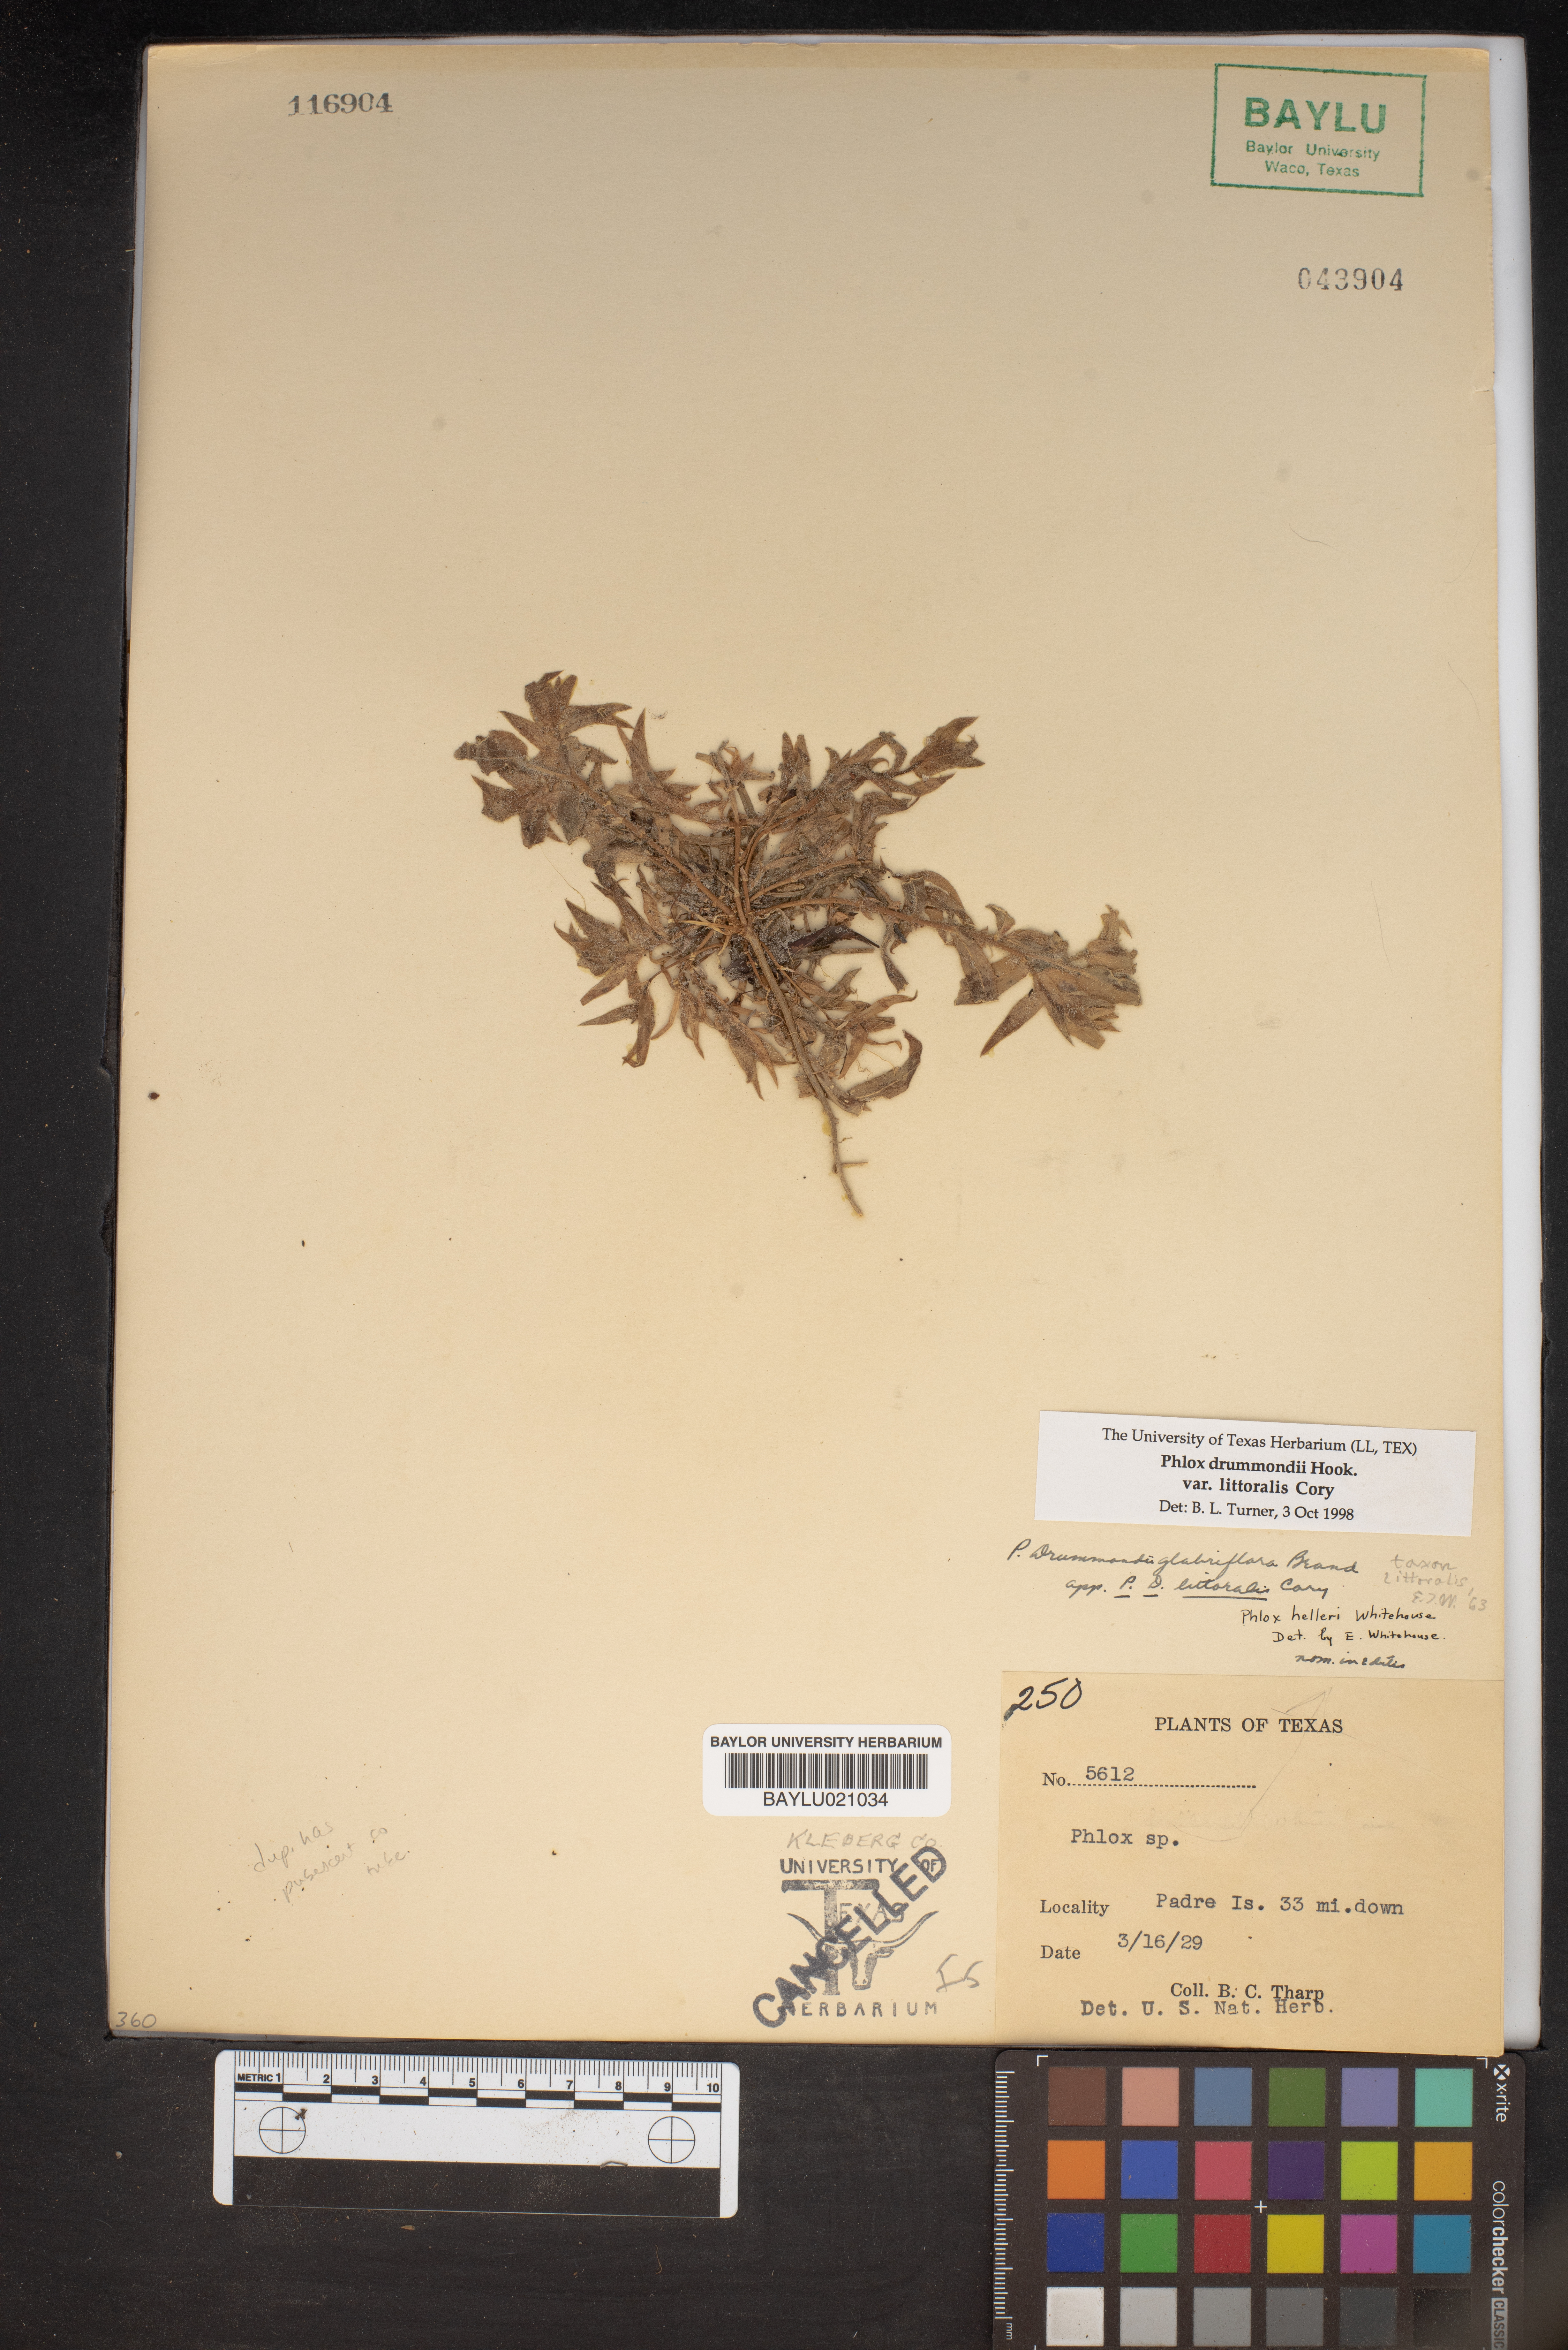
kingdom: Plantae
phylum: Tracheophyta
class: Magnoliopsida
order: Ericales
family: Polemoniaceae
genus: Phlox
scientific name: Phlox glabriflora
